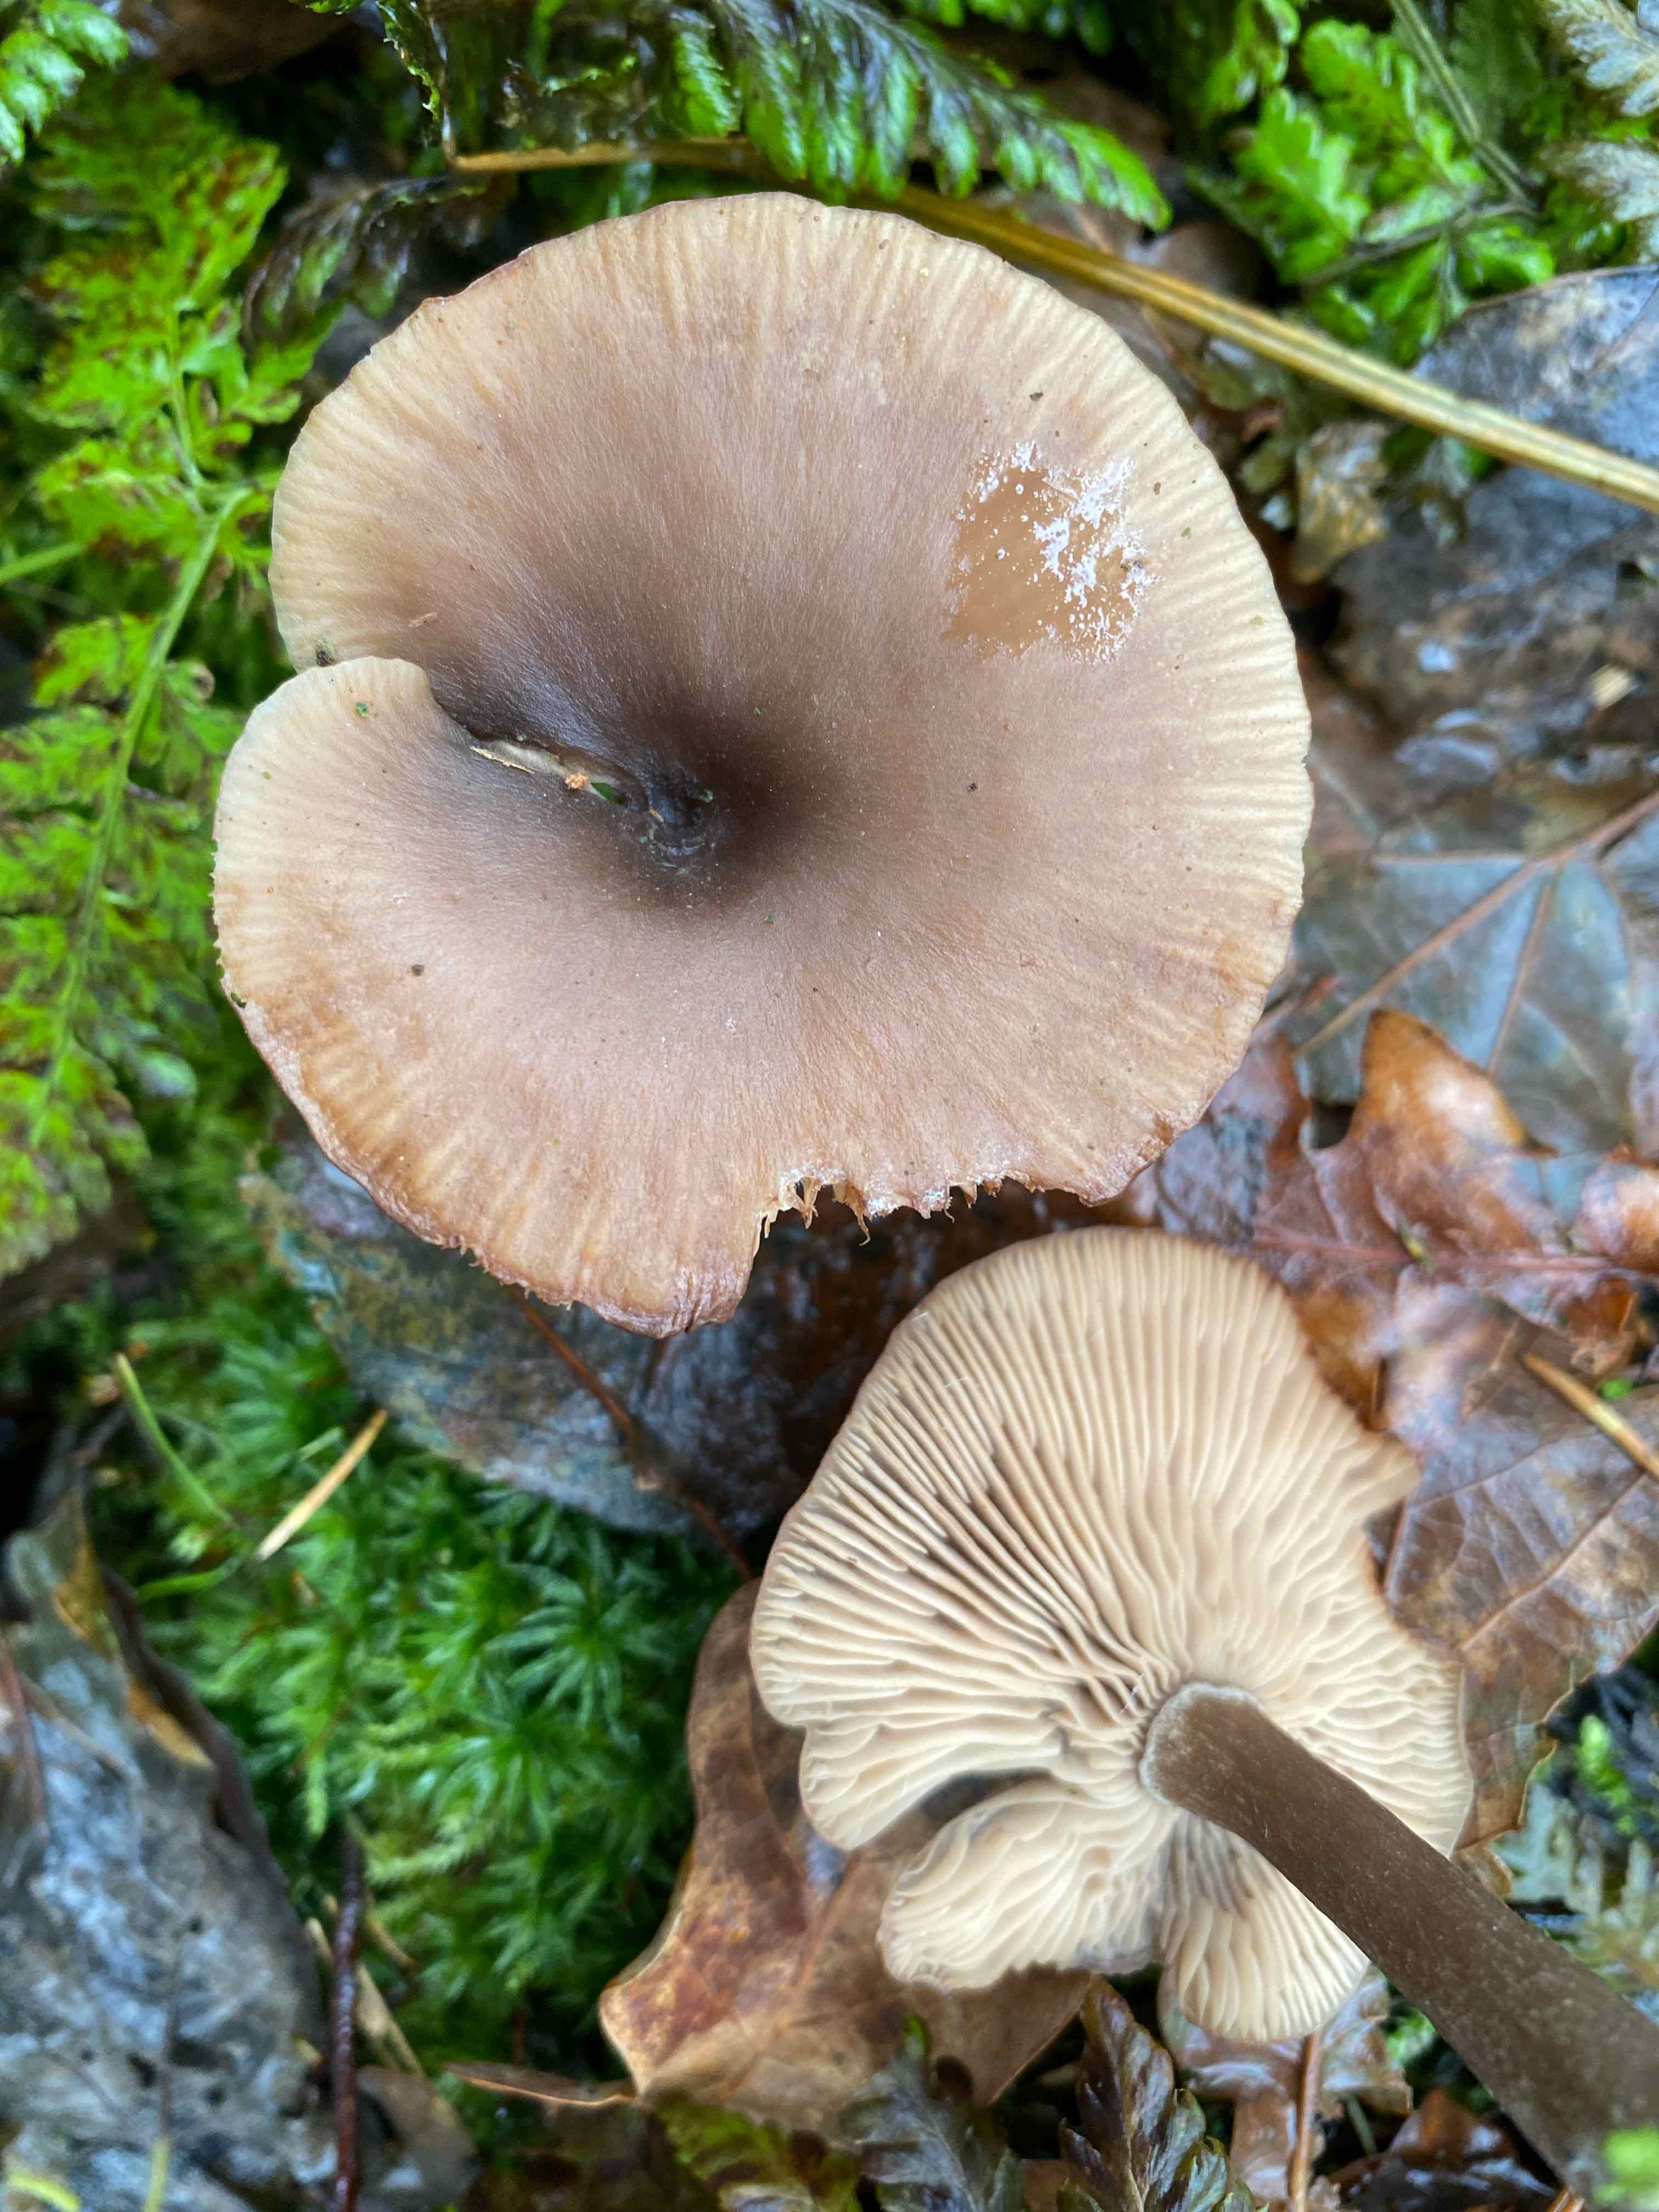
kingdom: Fungi
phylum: Basidiomycota
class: Agaricomycetes
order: Agaricales
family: Pseudoclitocybaceae
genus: Pseudoclitocybe
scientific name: Pseudoclitocybe cyathiformis
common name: almindelig bægertragthat
